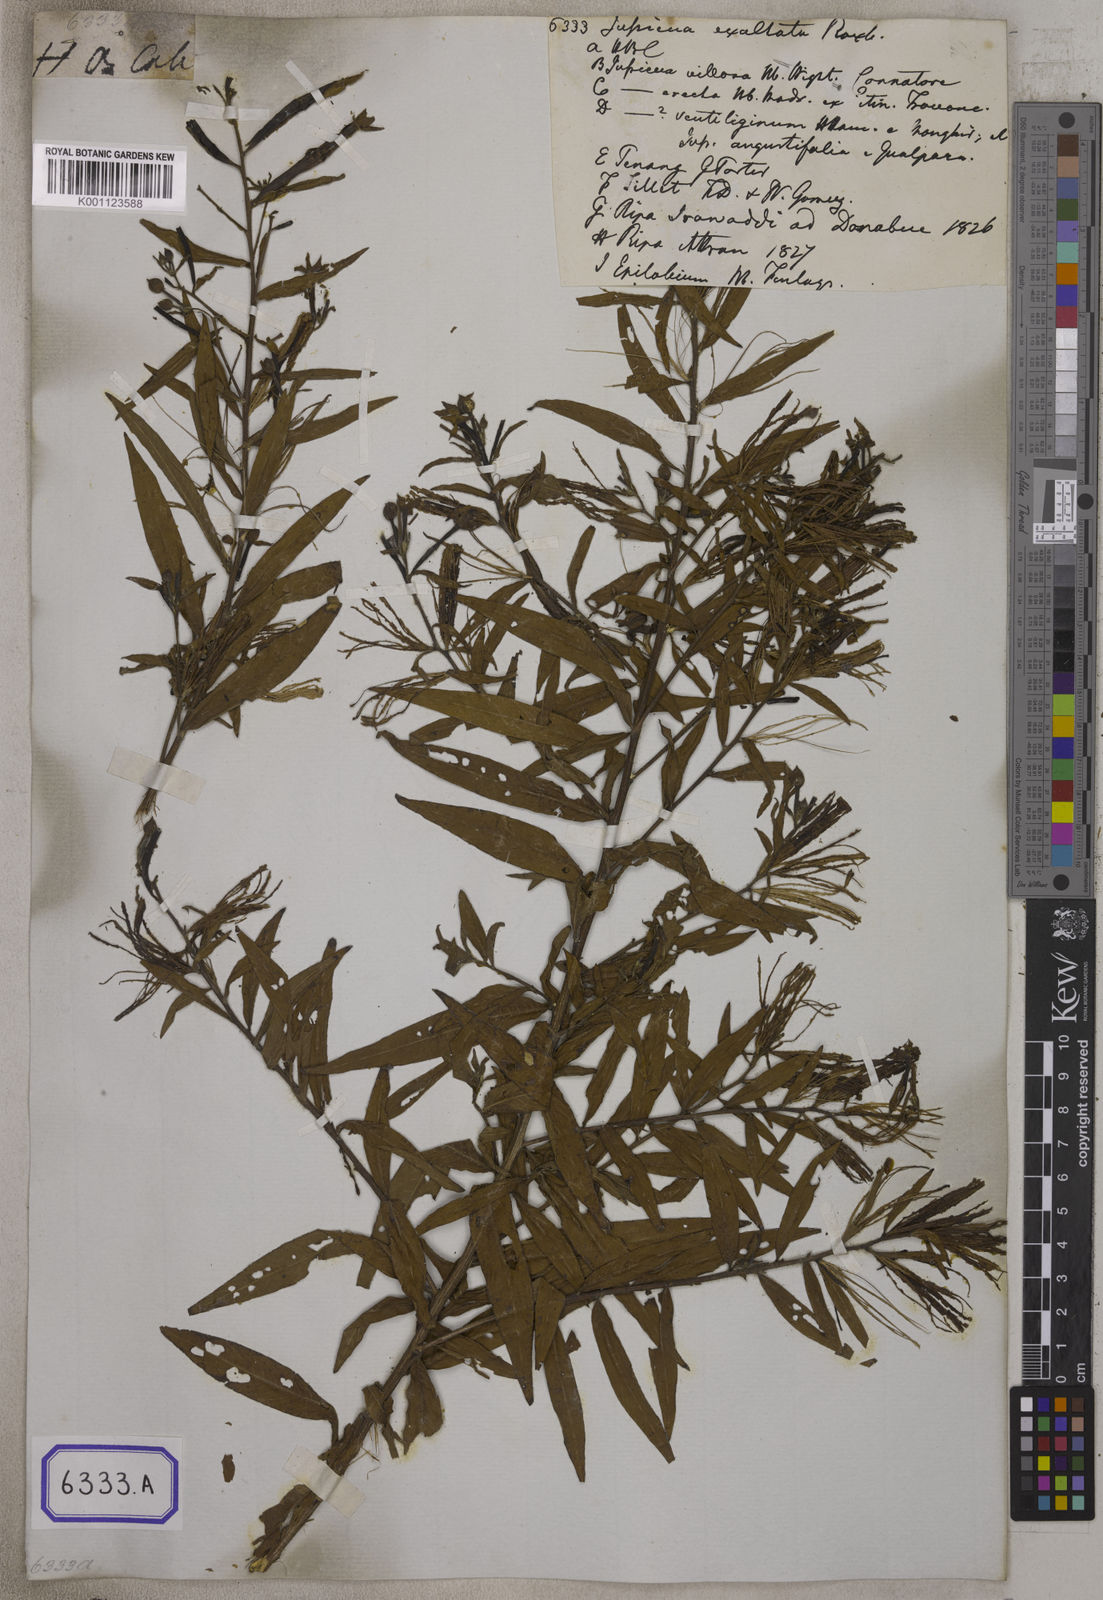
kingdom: Plantae
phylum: Tracheophyta
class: Magnoliopsida
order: Myrtales
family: Onagraceae
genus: Ludwigia
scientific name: Ludwigia octovalvis
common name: Water-primrose
